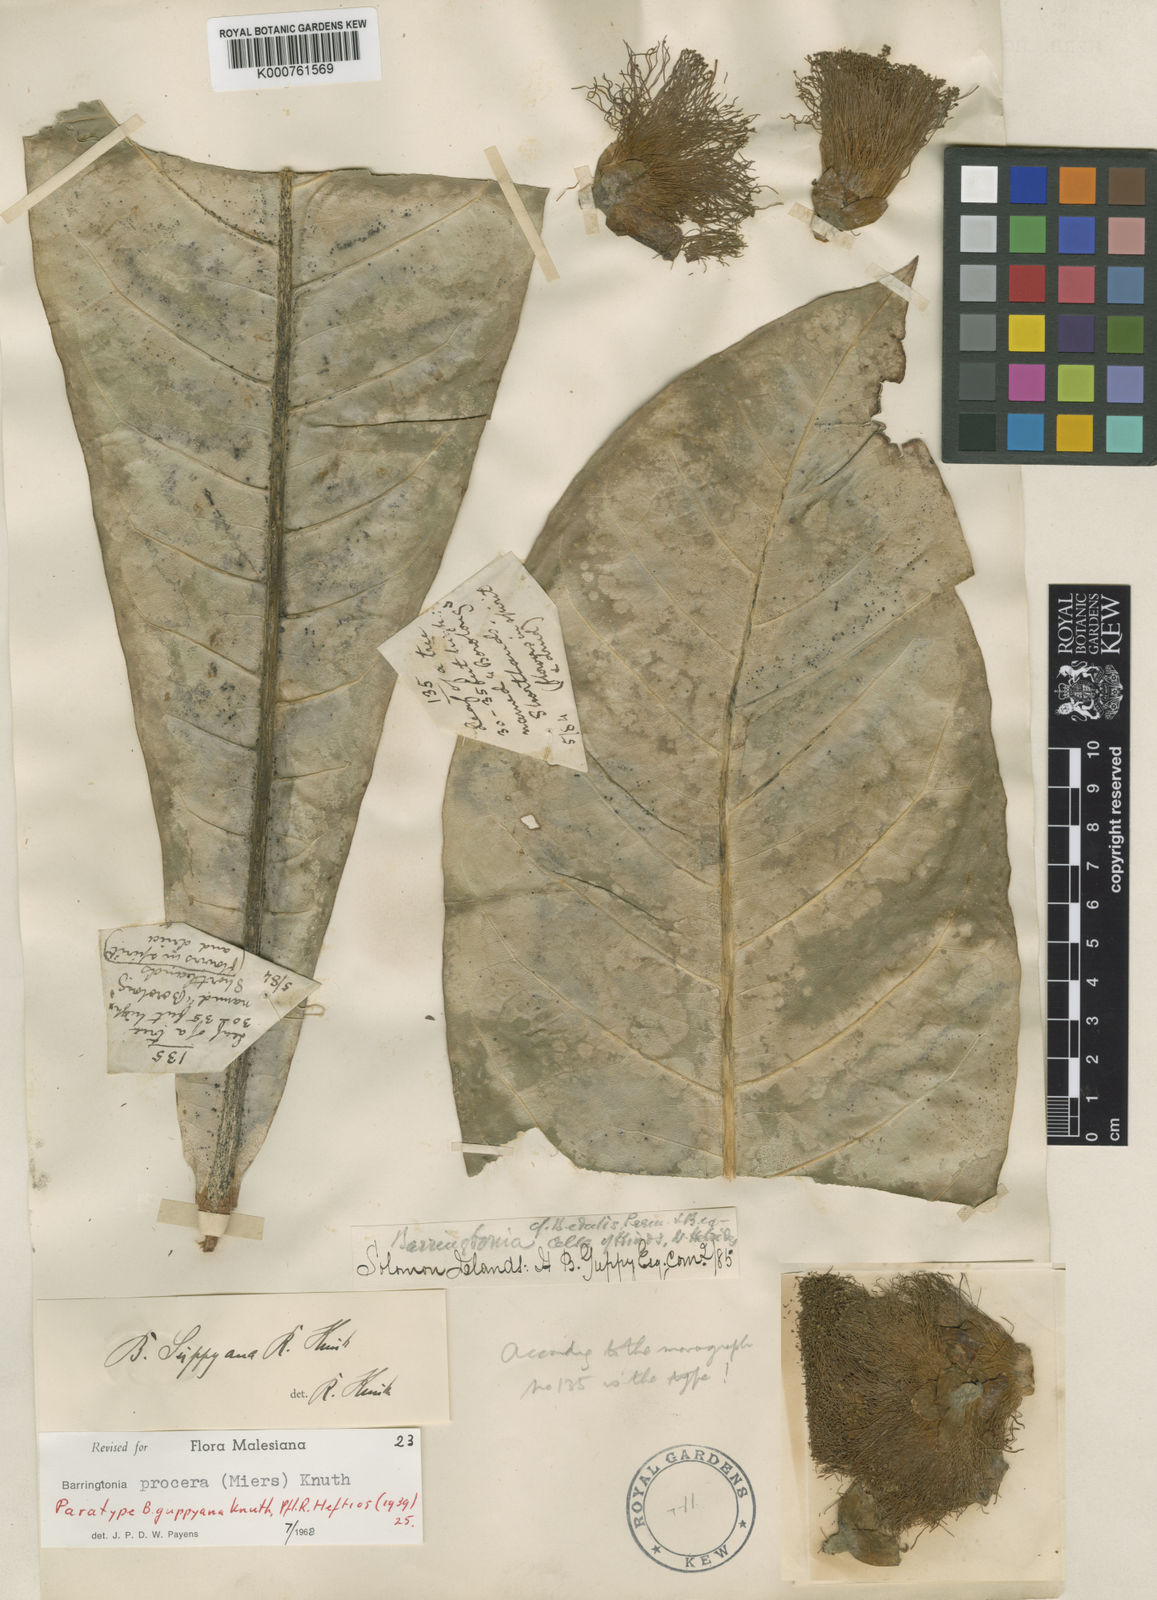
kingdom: Plantae
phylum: Tracheophyta
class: Magnoliopsida
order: Ericales
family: Lecythidaceae
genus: Barringtonia
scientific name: Barringtonia procera
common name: Cutnut
